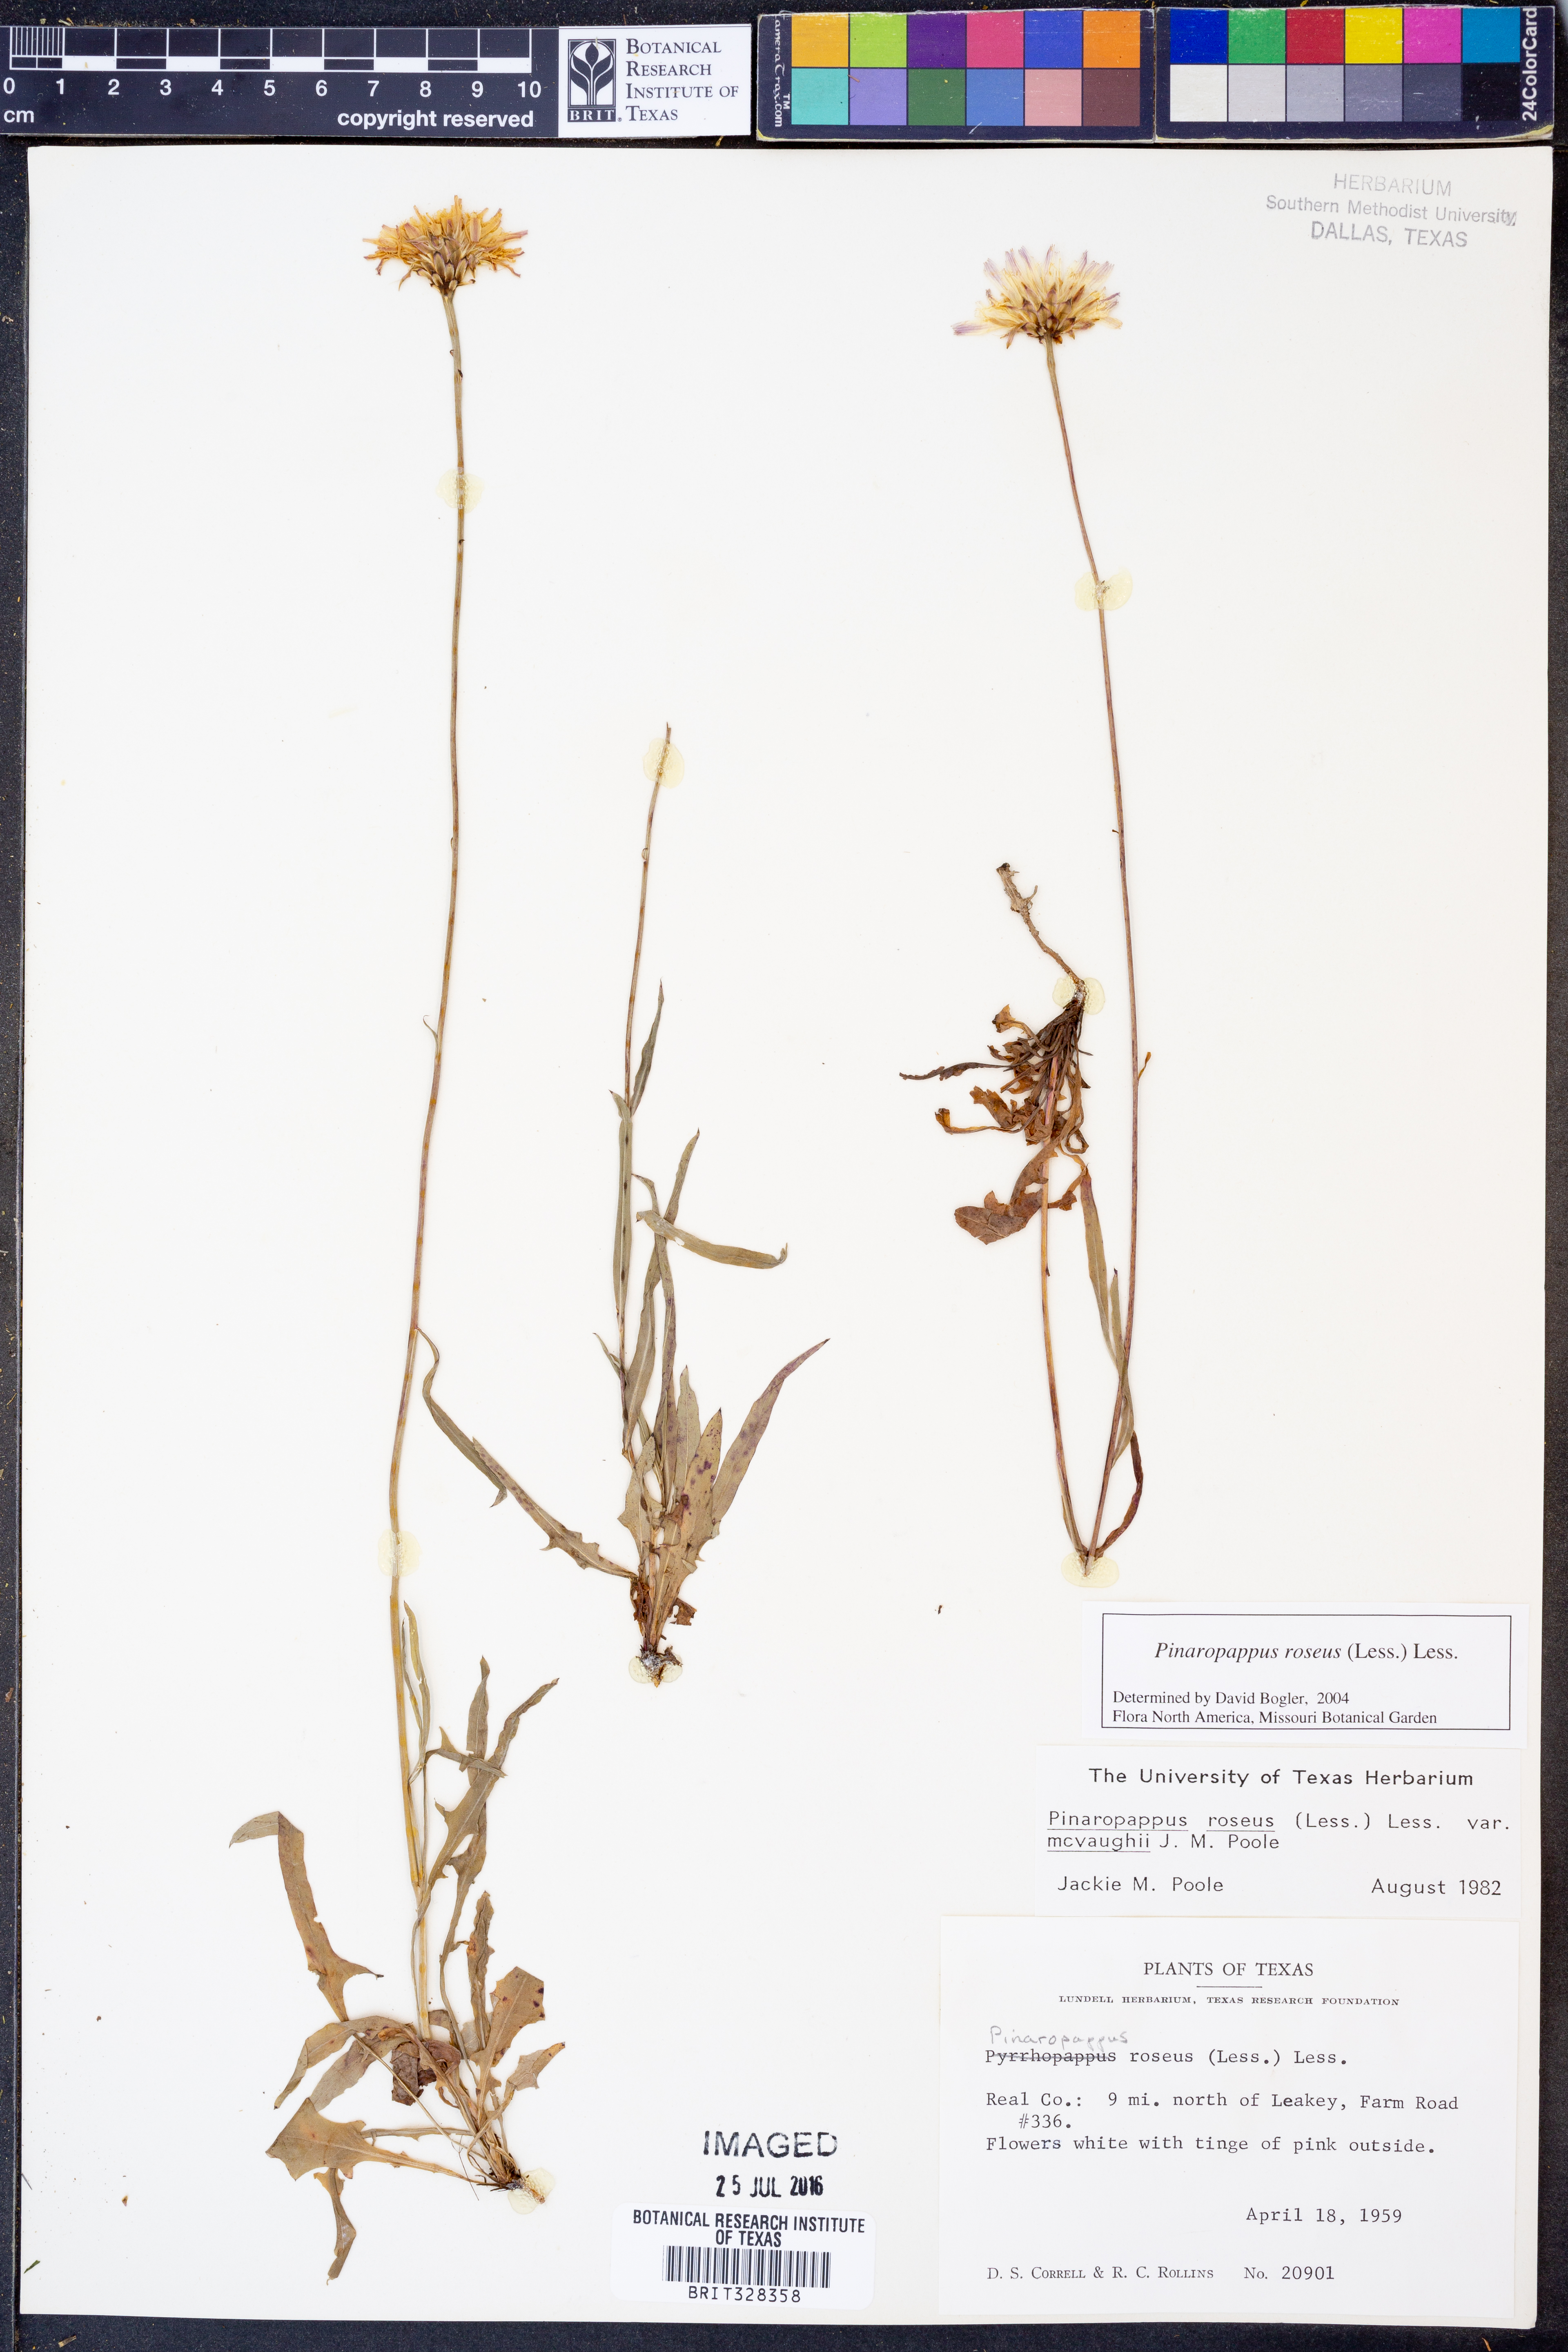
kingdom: Plantae
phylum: Tracheophyta
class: Magnoliopsida
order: Asterales
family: Asteraceae
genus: Pinaropappus
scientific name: Pinaropappus roseus
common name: Rock-lettuce
